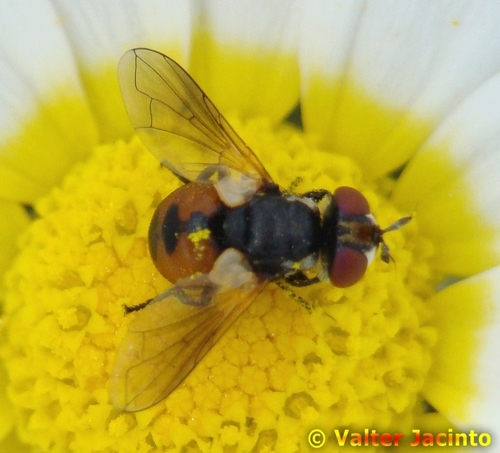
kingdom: Animalia
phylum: Arthropoda
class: Insecta
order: Diptera
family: Tachinidae
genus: Gymnosoma
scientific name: Gymnosoma
